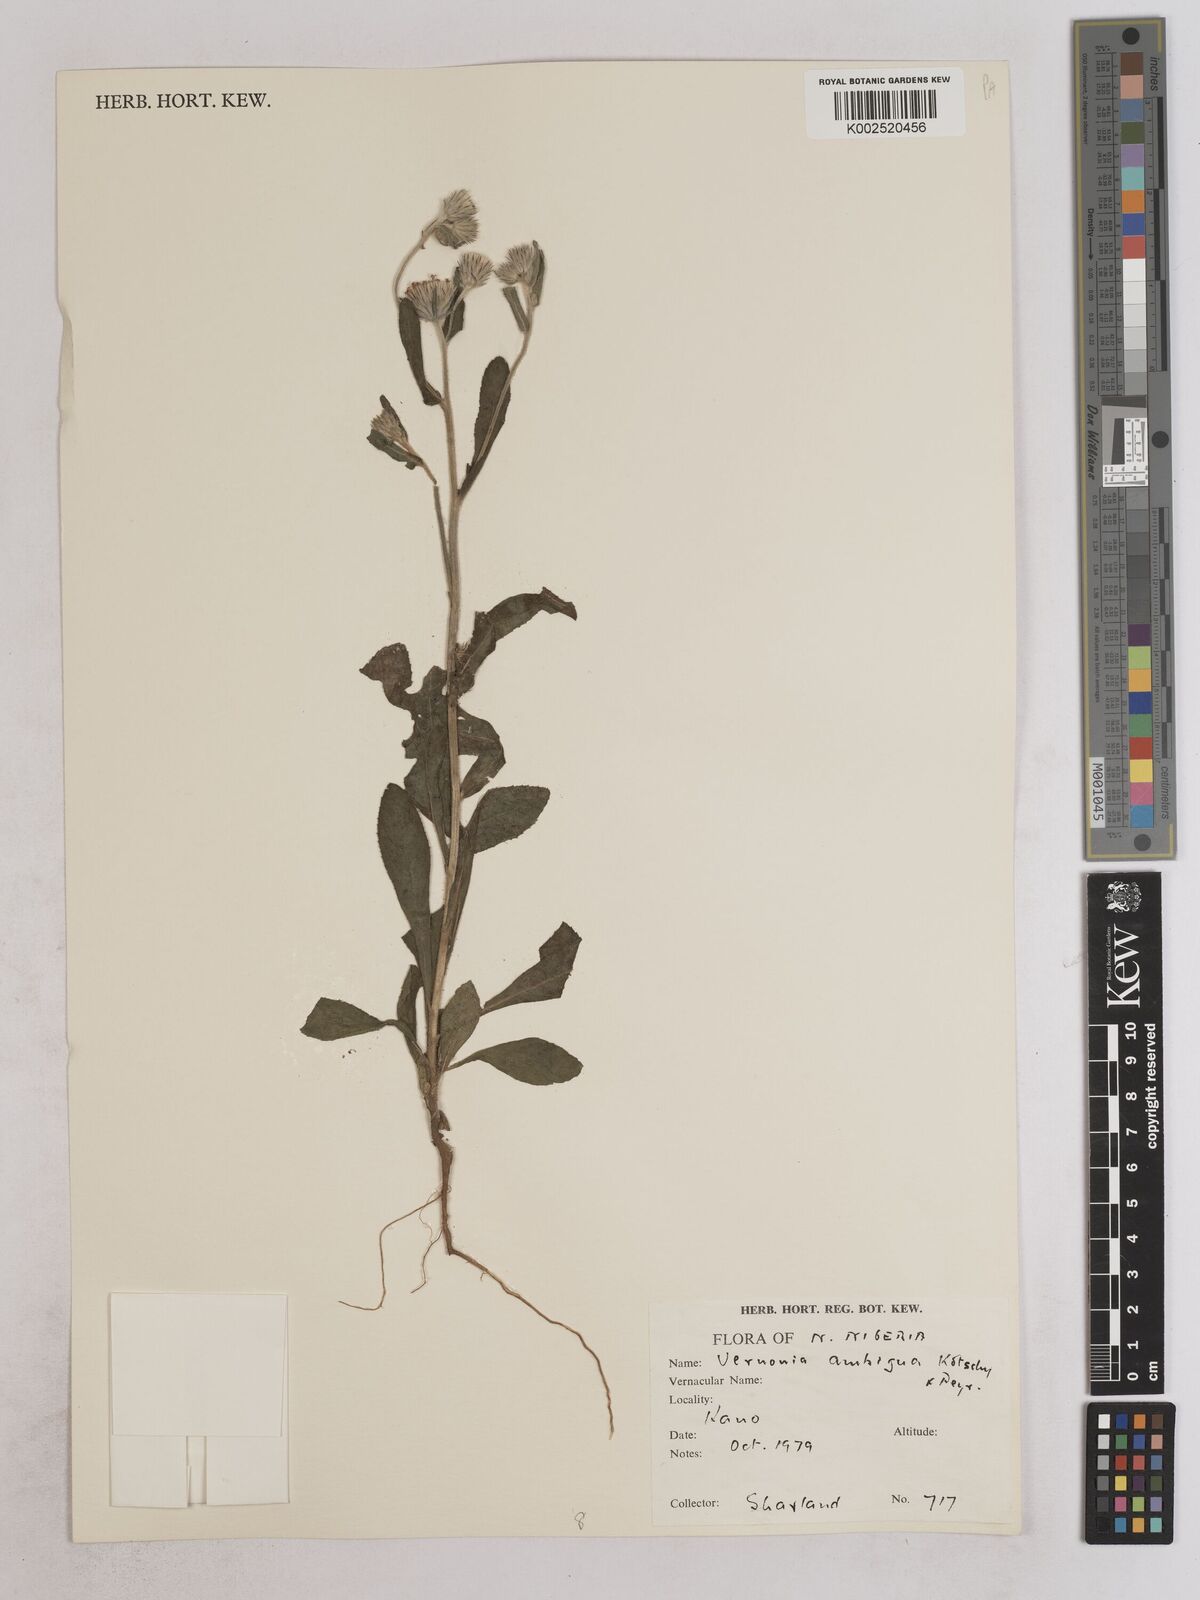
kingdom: Plantae
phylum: Tracheophyta
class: Magnoliopsida
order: Asterales
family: Asteraceae
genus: Vernoniastrum
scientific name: Vernoniastrum ambiguum
